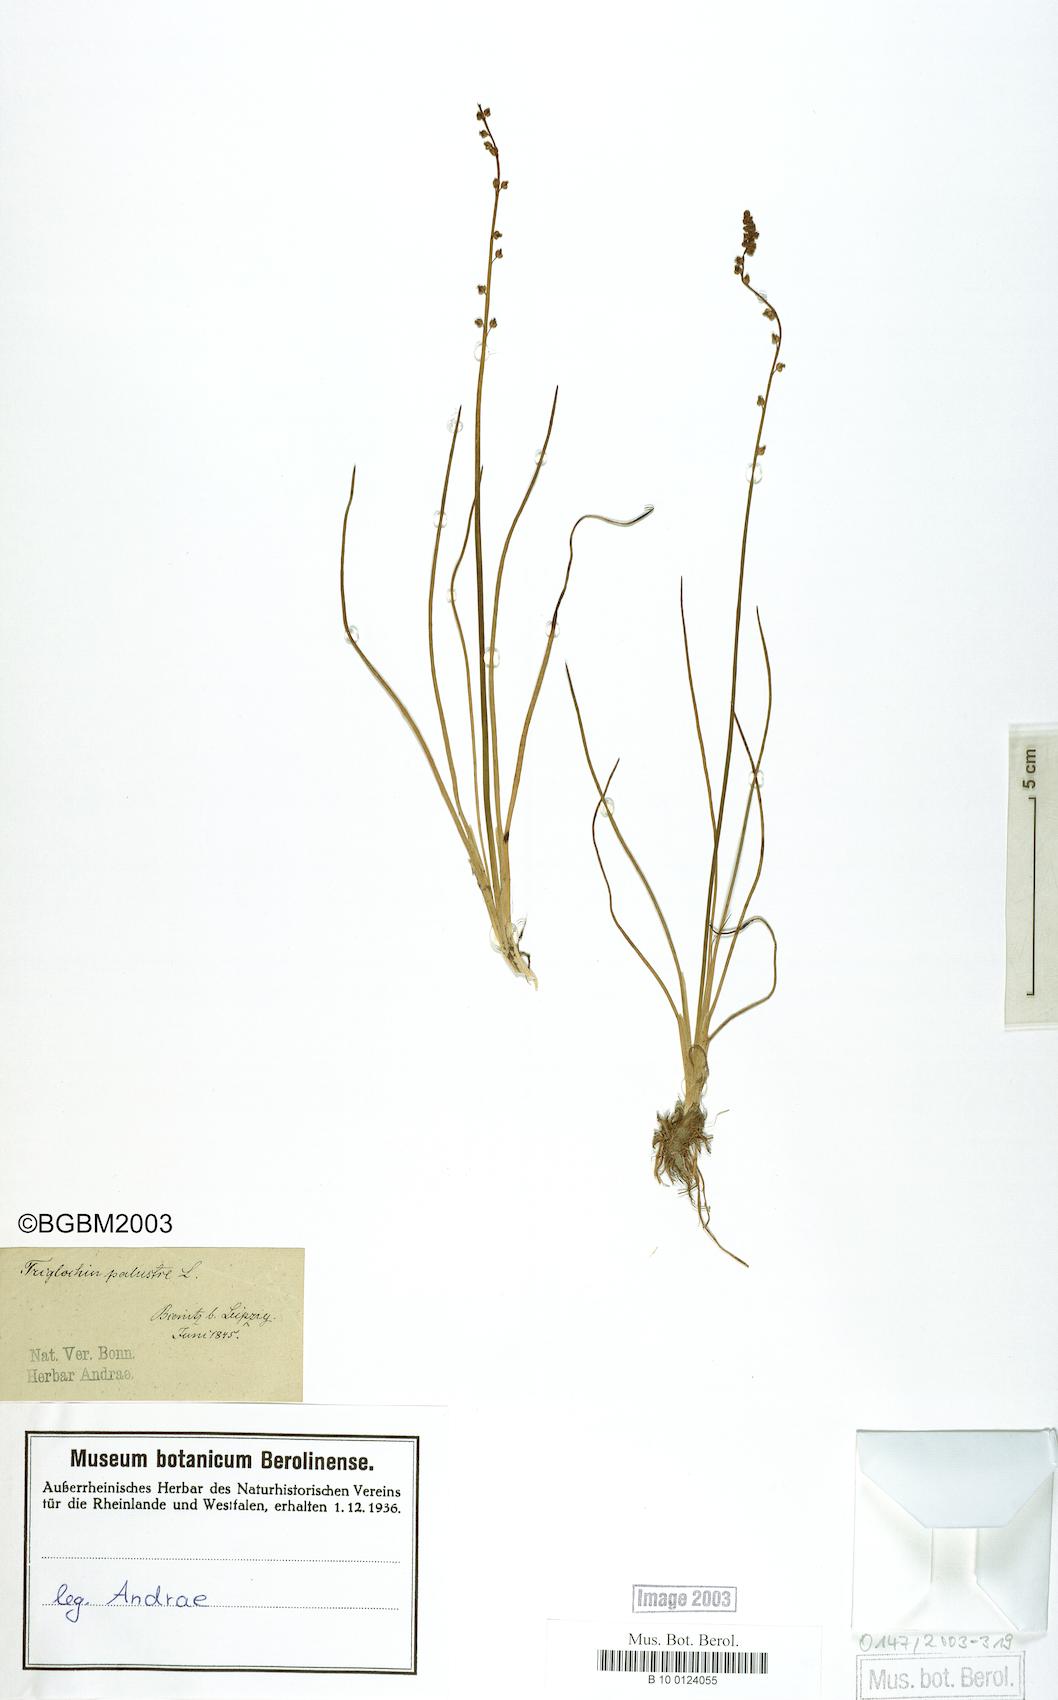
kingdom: Plantae
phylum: Tracheophyta
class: Liliopsida
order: Alismatales
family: Juncaginaceae
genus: Triglochin
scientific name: Triglochin palustris
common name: Marsh arrowgrass
